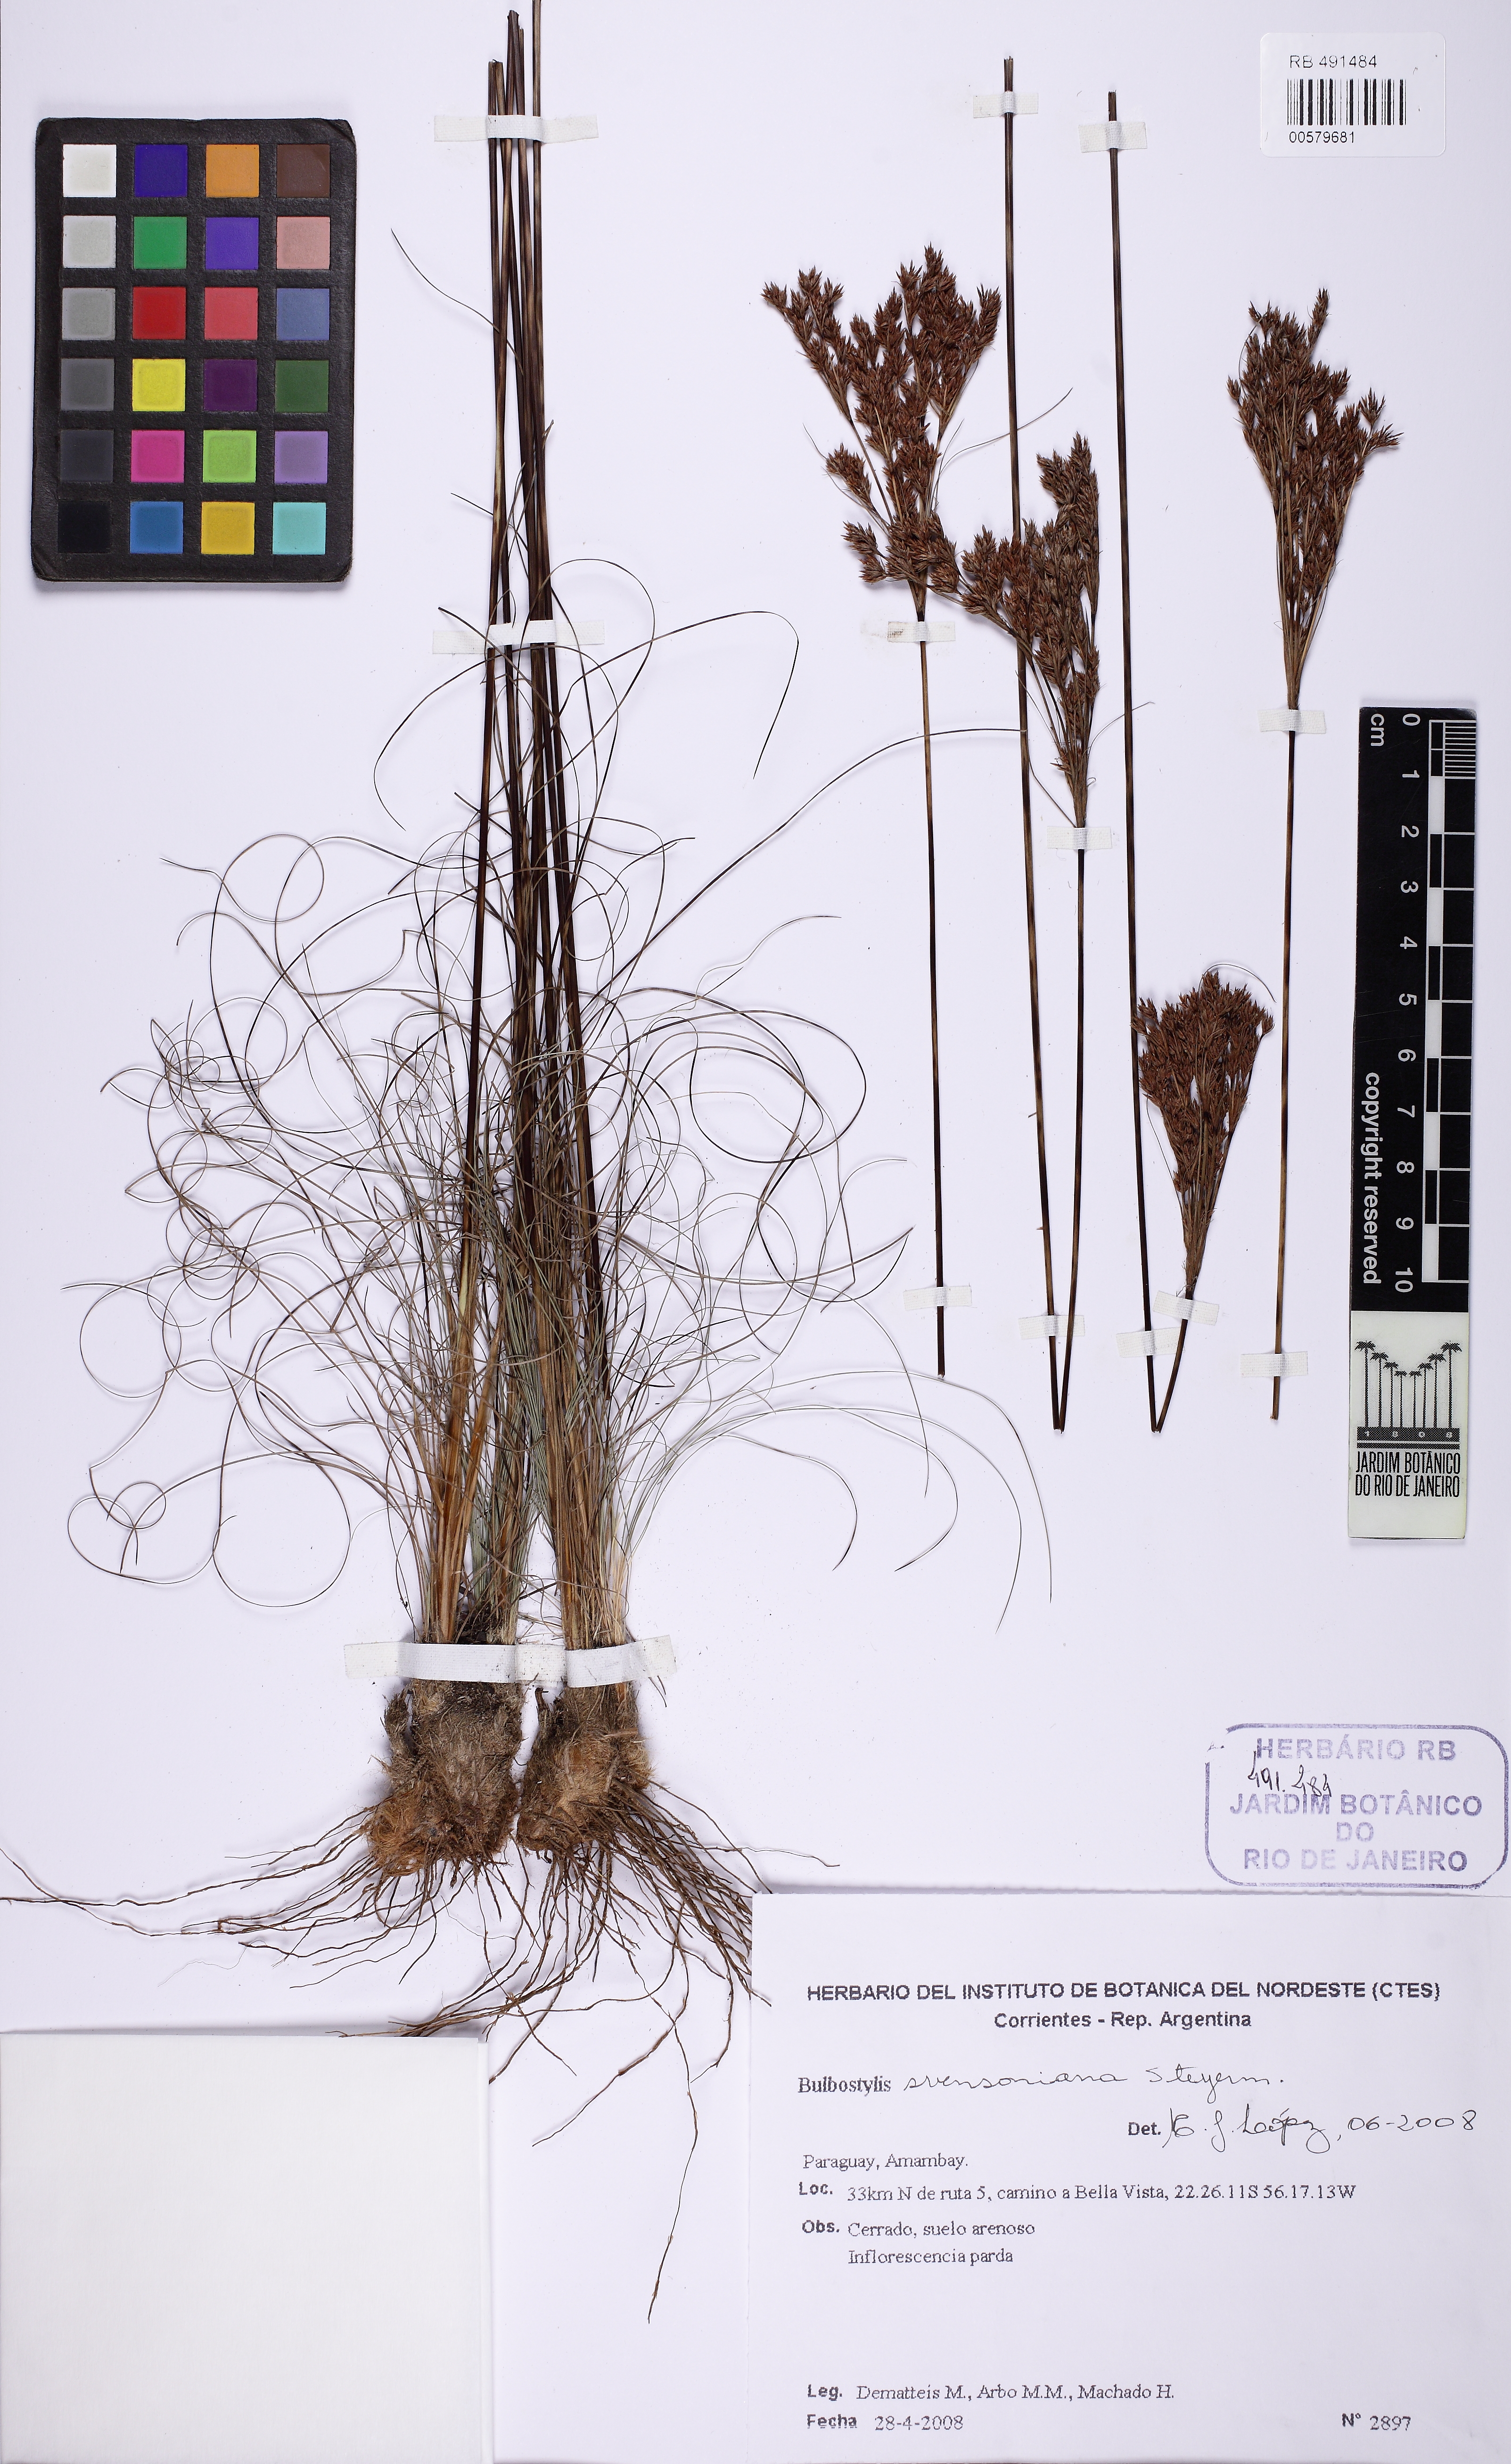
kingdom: Plantae
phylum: Tracheophyta
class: Liliopsida
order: Poales
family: Cyperaceae
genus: Bulbostylis
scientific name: Bulbostylis svensoniana
